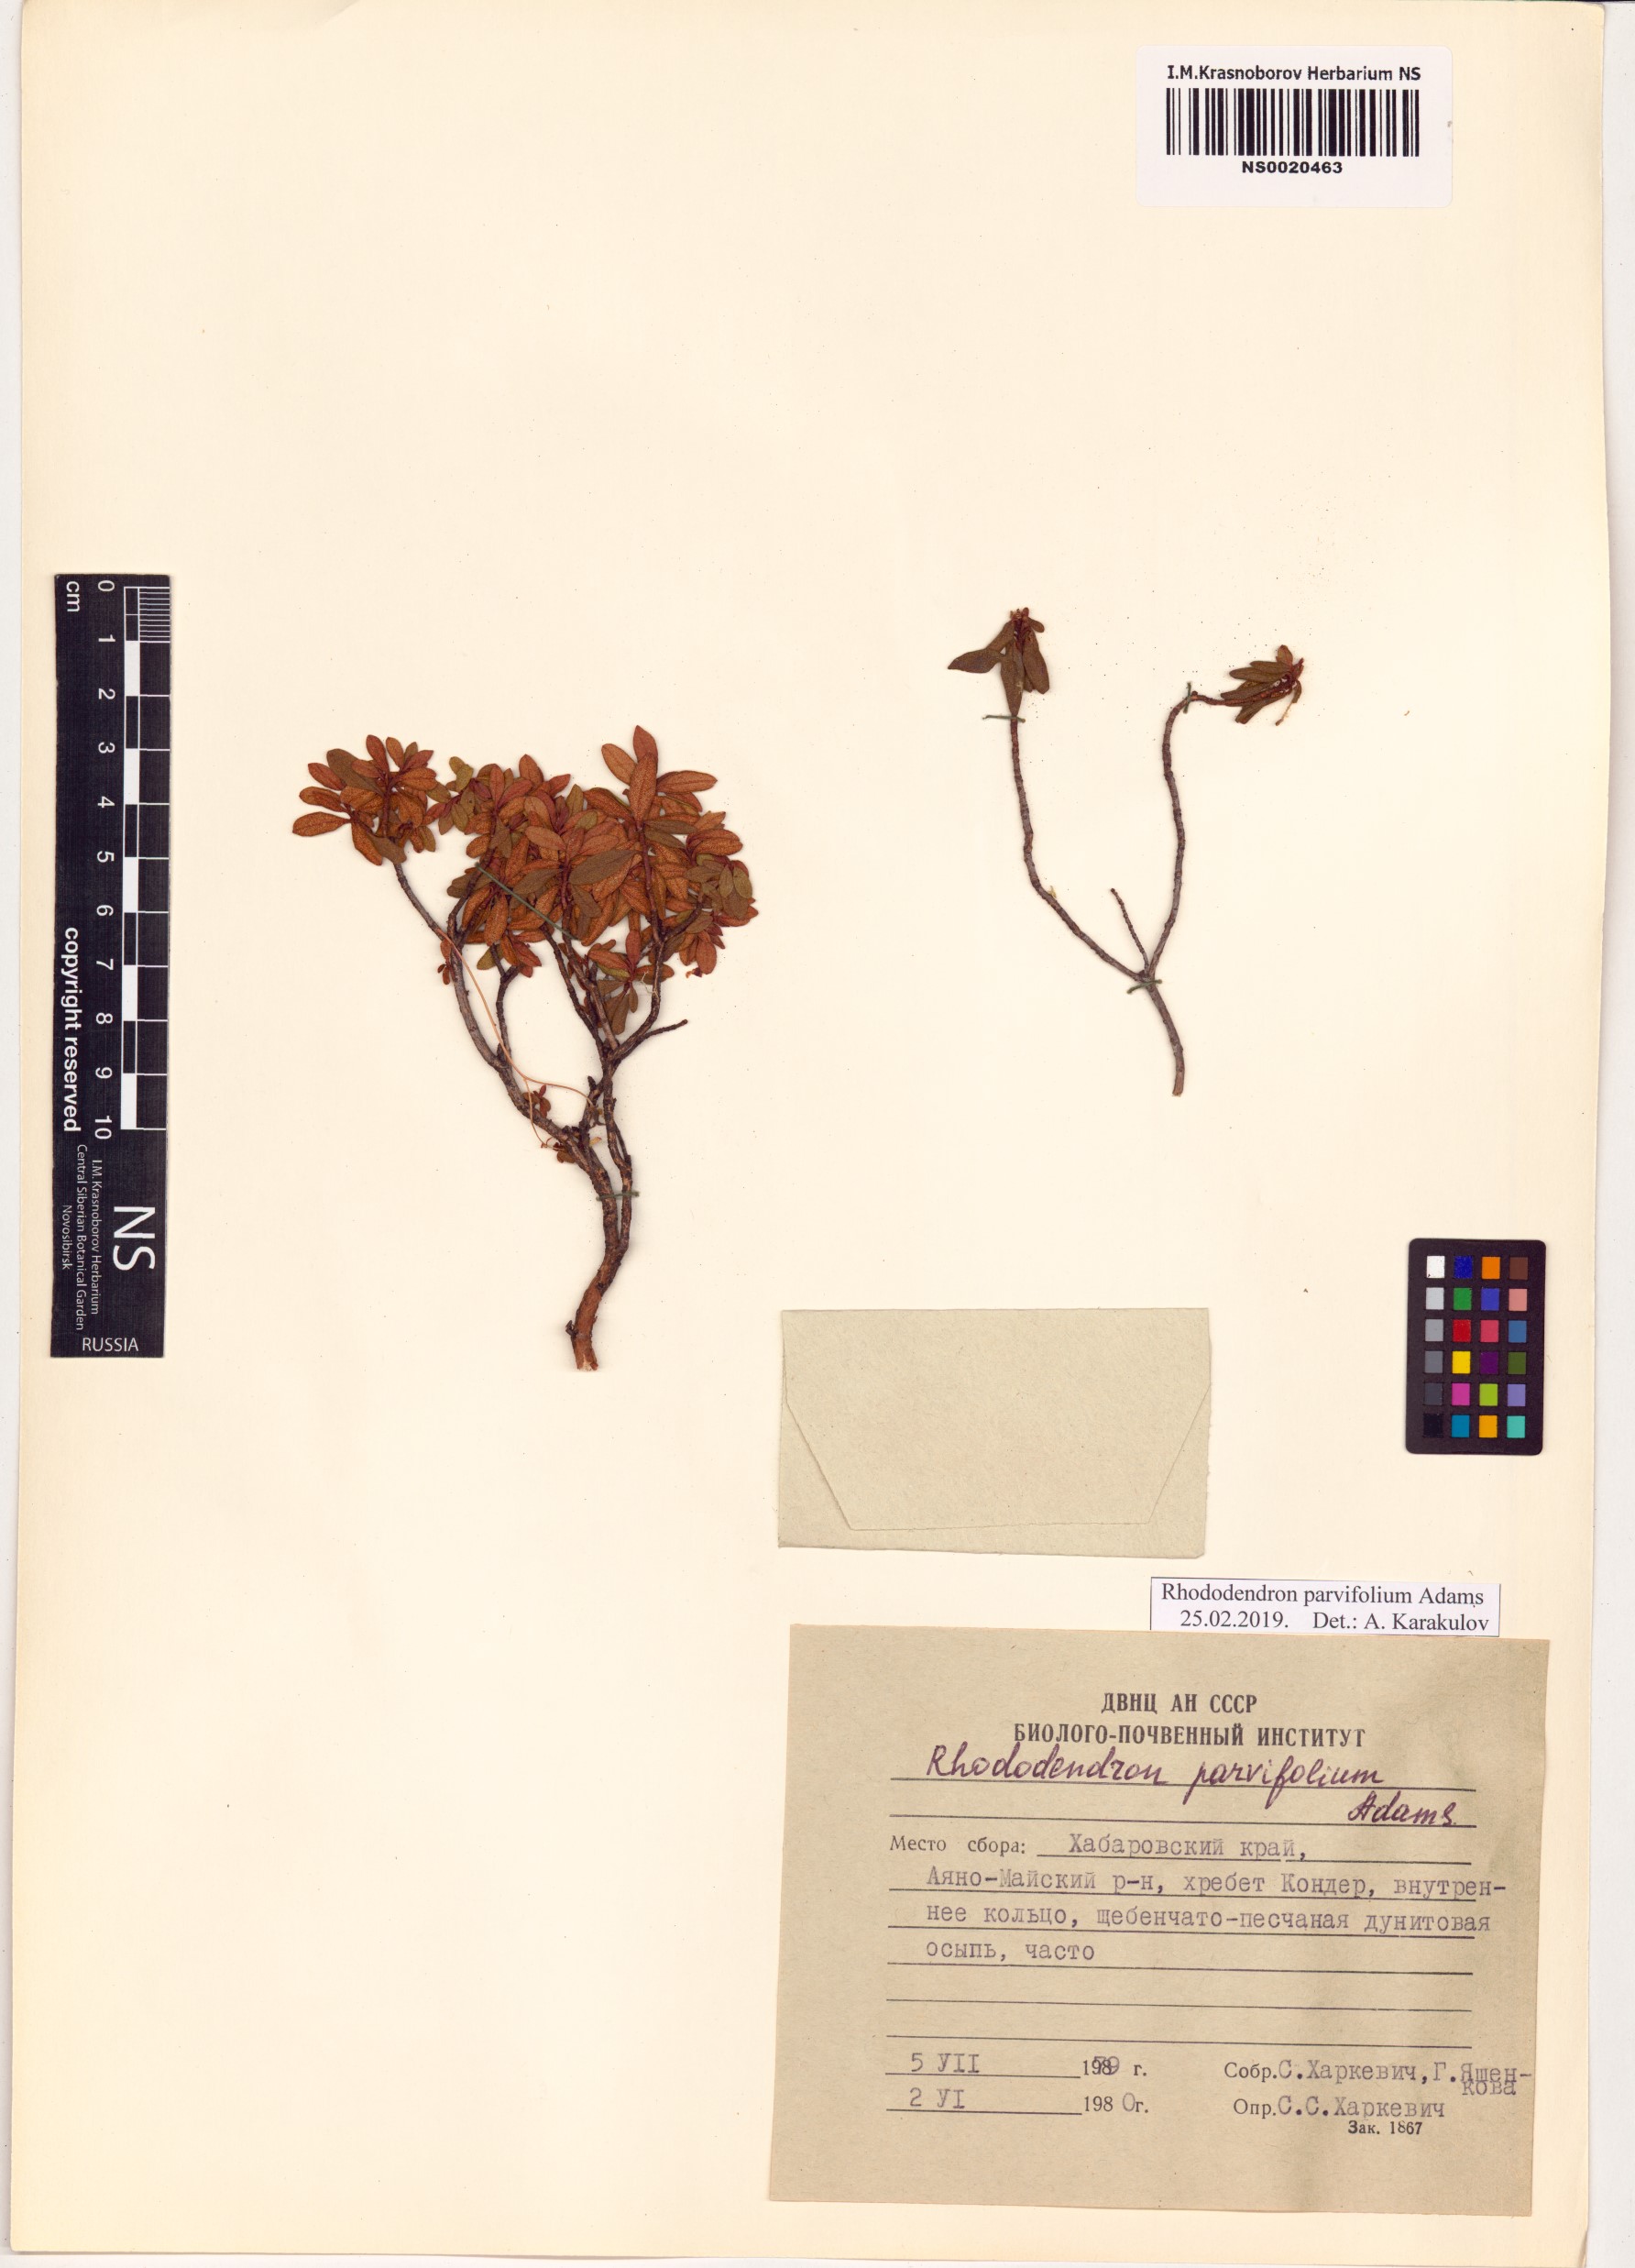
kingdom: Plantae
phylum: Tracheophyta
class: Magnoliopsida
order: Ericales
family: Ericaceae
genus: Rhododendron
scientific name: Rhododendron parvifolium
